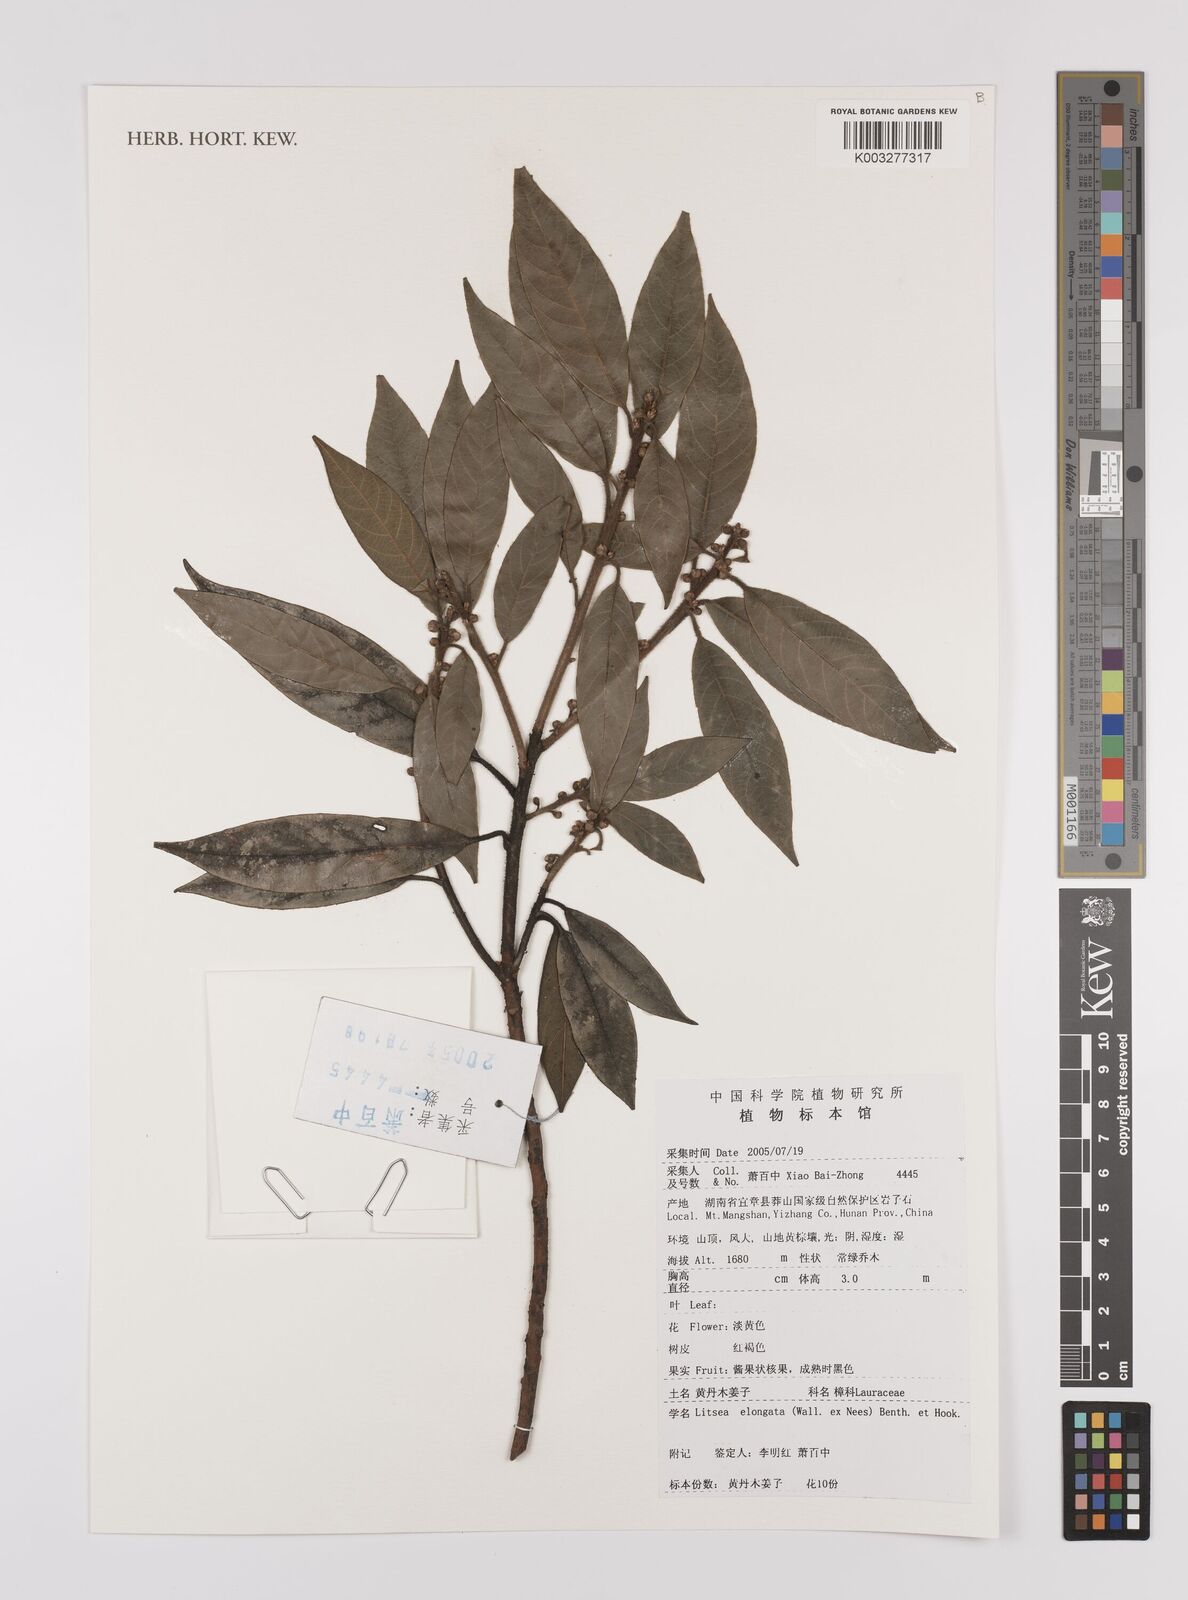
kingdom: Plantae
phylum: Tracheophyta
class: Magnoliopsida
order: Laurales
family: Lauraceae
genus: Litsea
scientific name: Litsea elongata
